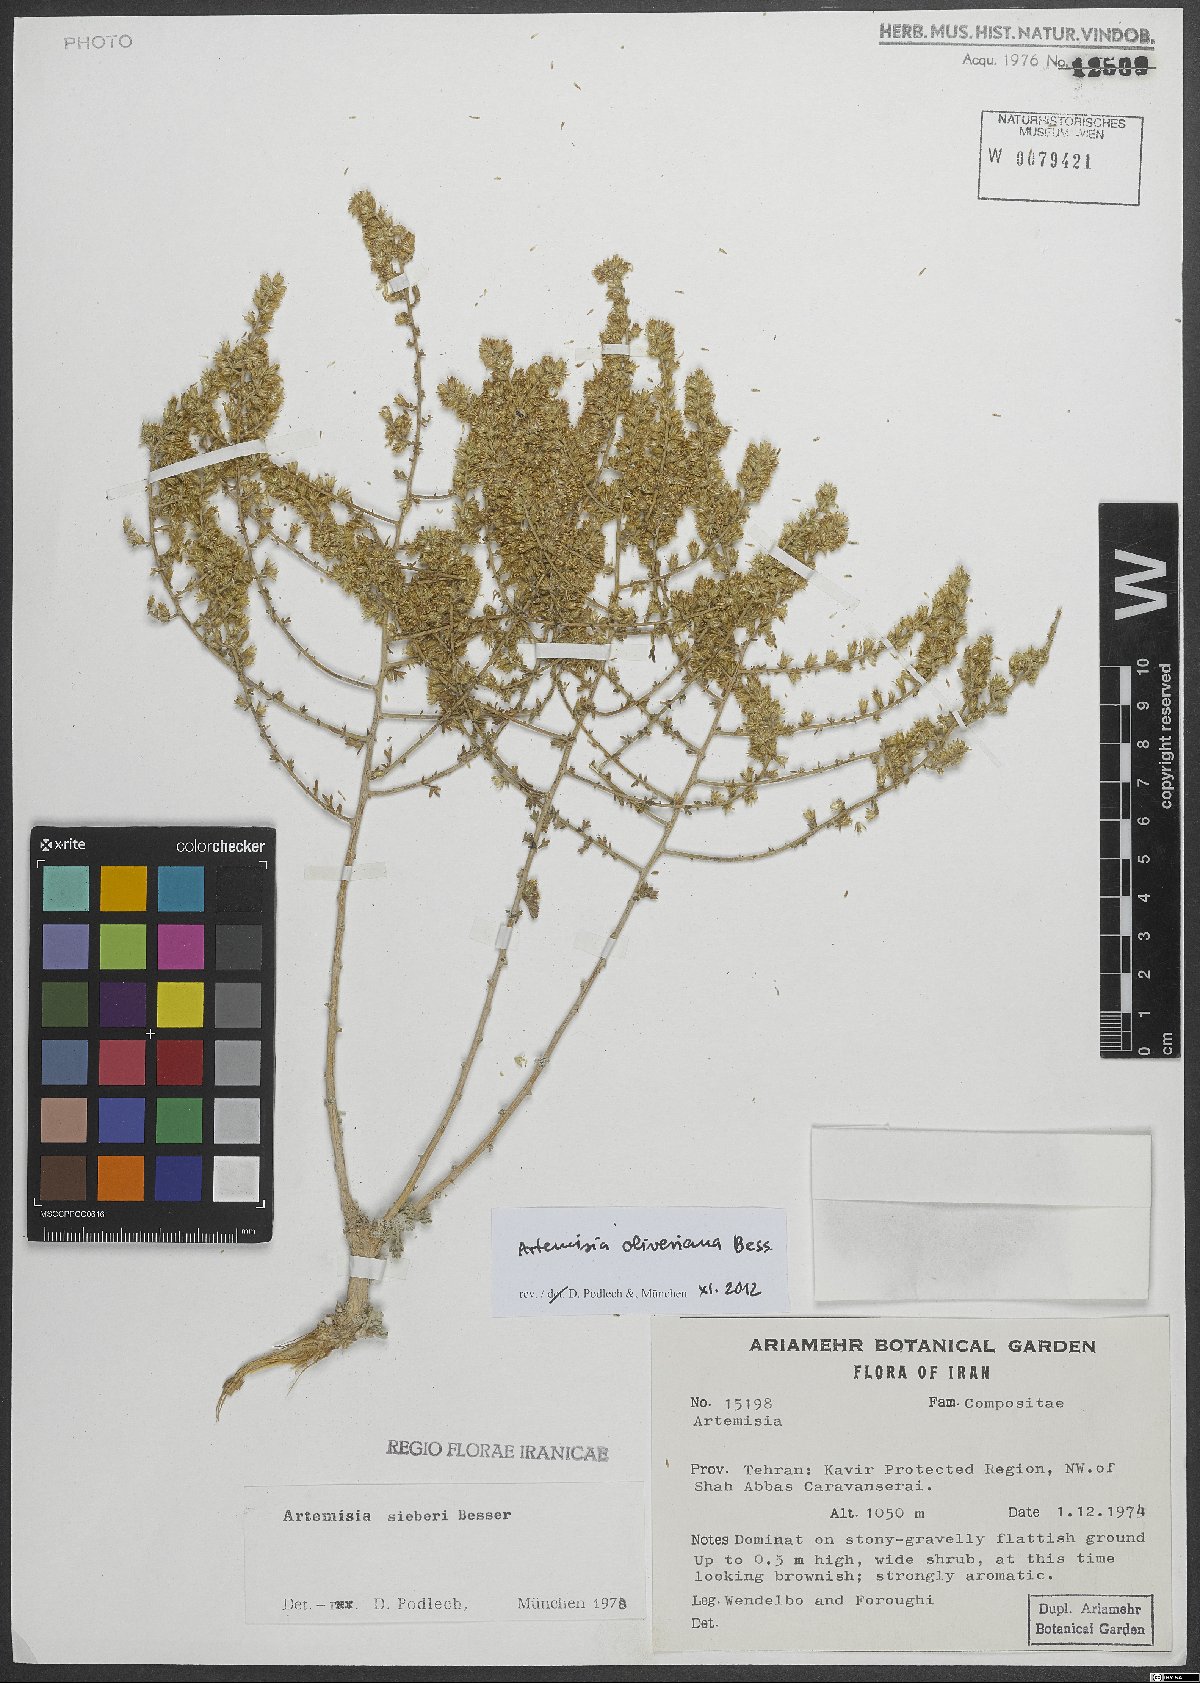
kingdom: Plantae
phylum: Tracheophyta
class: Magnoliopsida
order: Asterales
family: Asteraceae
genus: Artemisia
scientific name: Artemisia oliveriana
